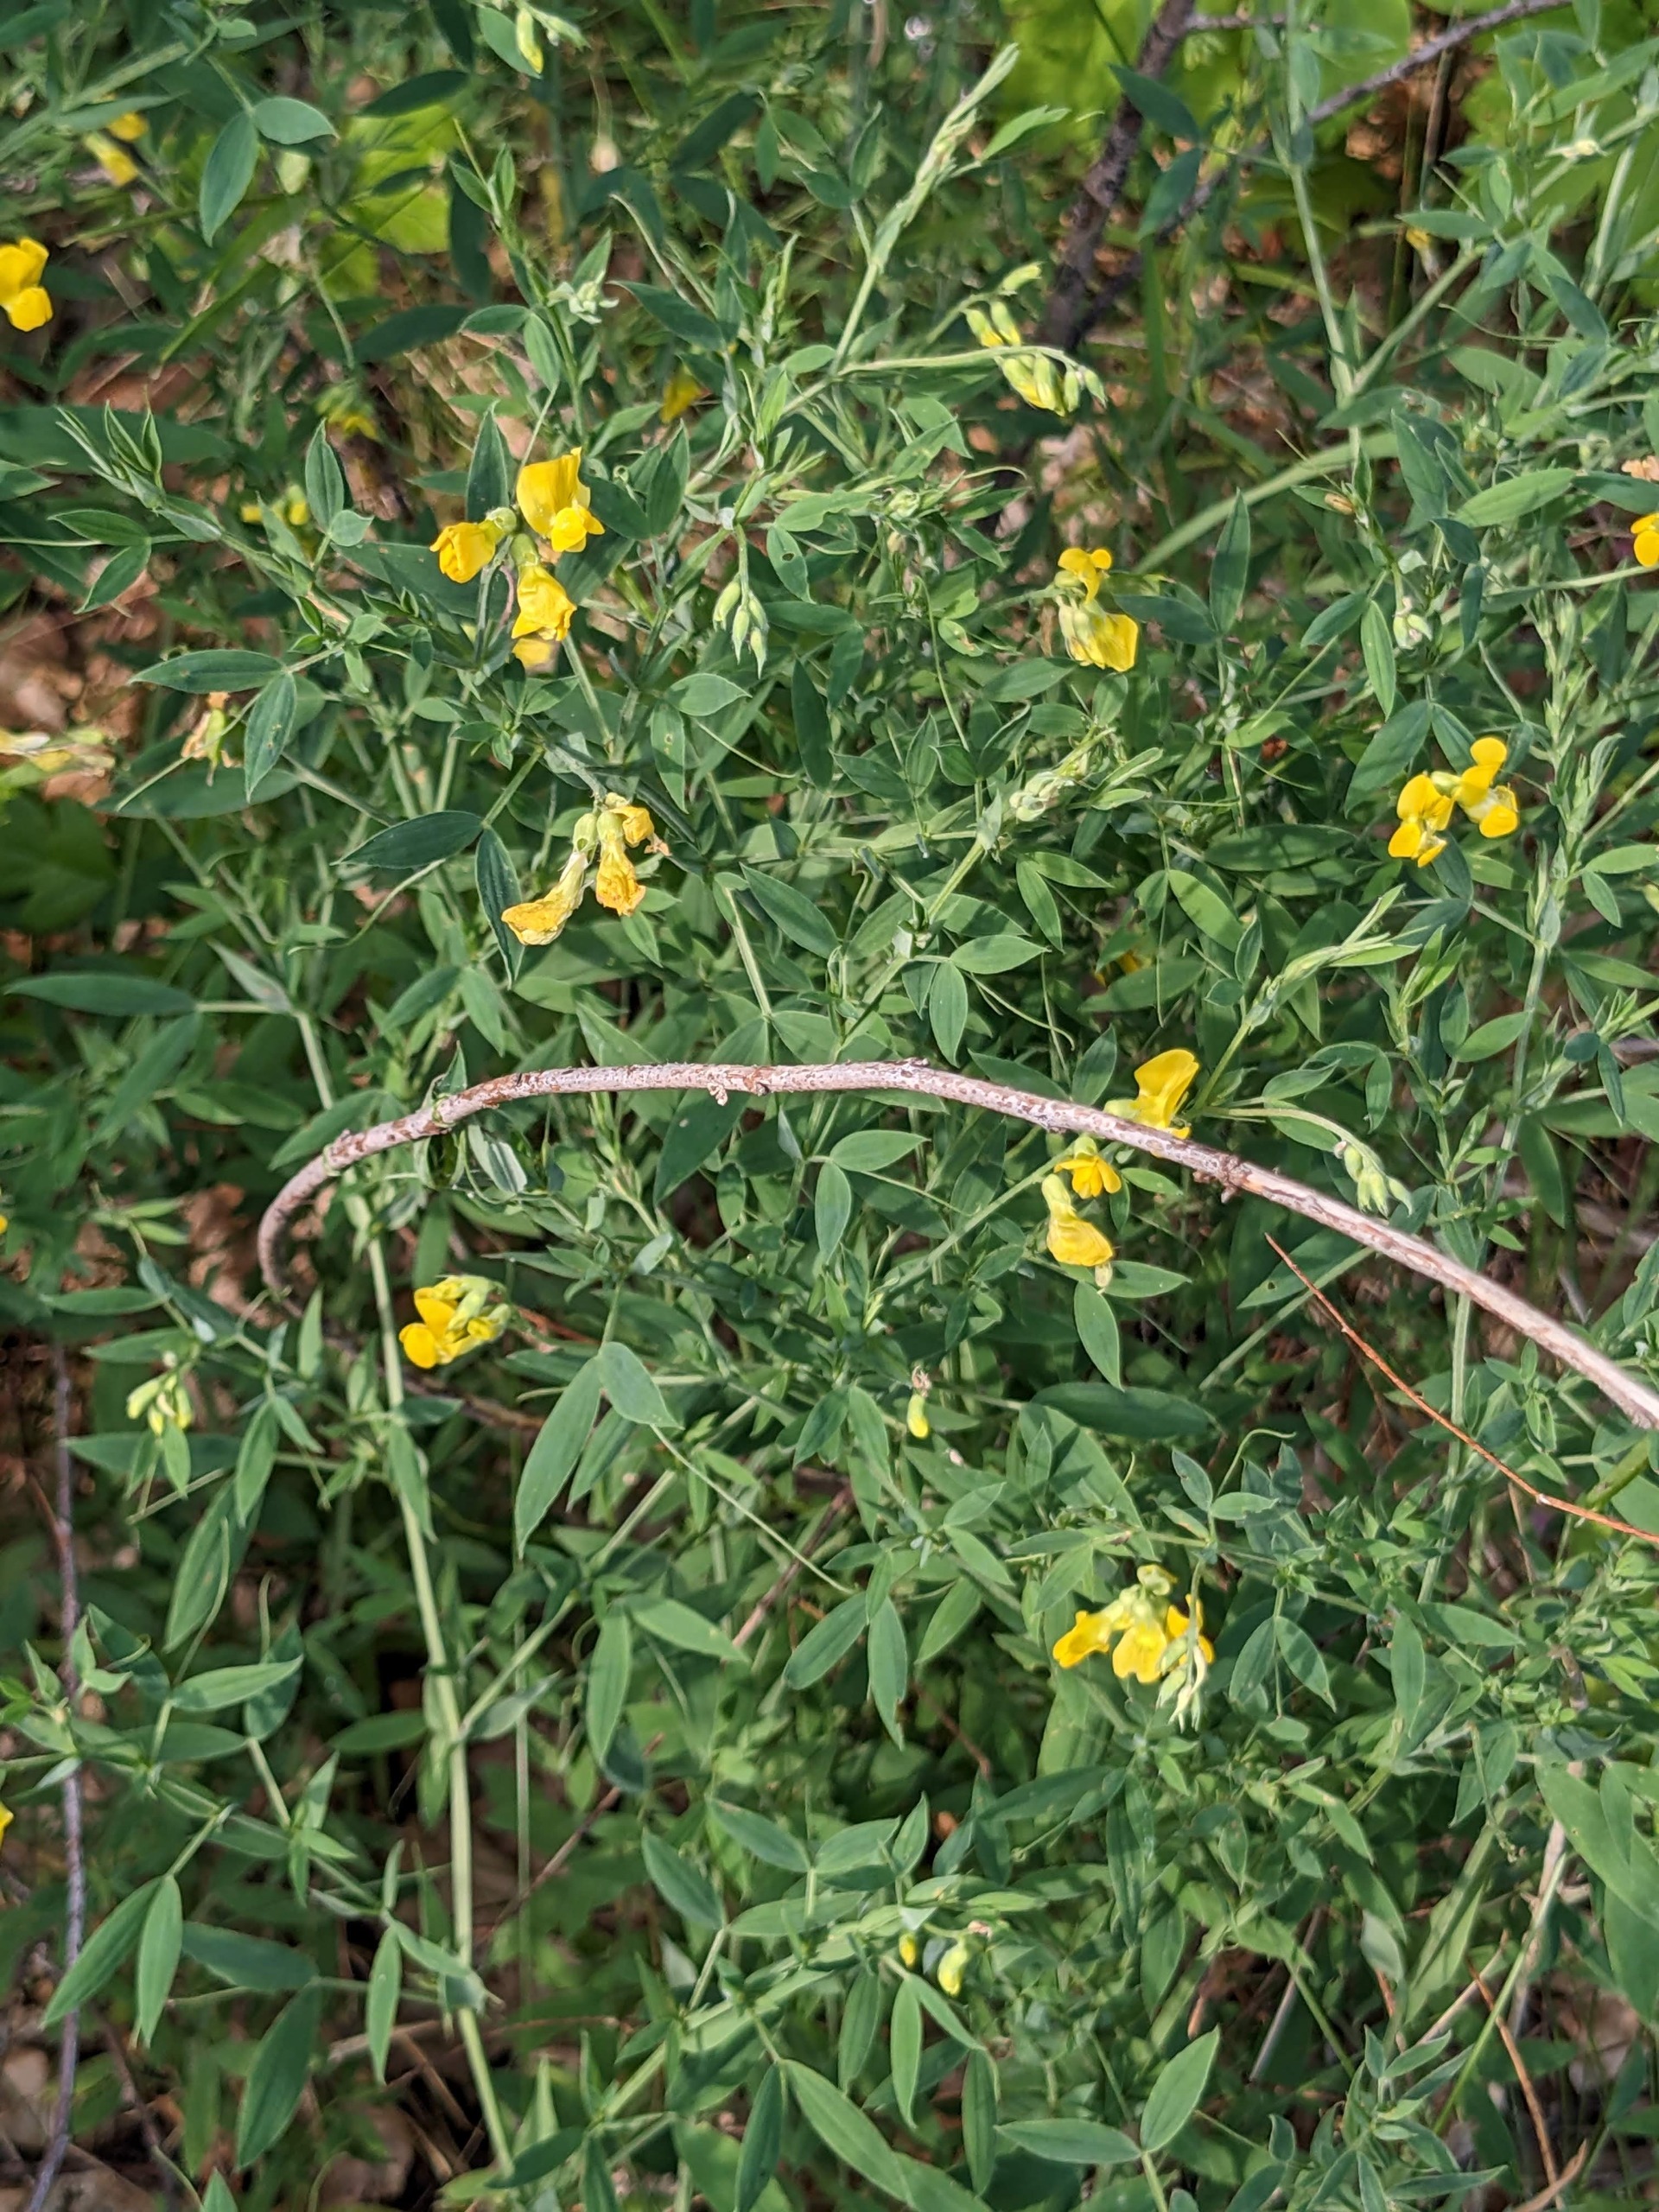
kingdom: Plantae
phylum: Tracheophyta
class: Magnoliopsida
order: Fabales
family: Fabaceae
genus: Lathyrus
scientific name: Lathyrus pratensis
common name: Gul fladbælg
